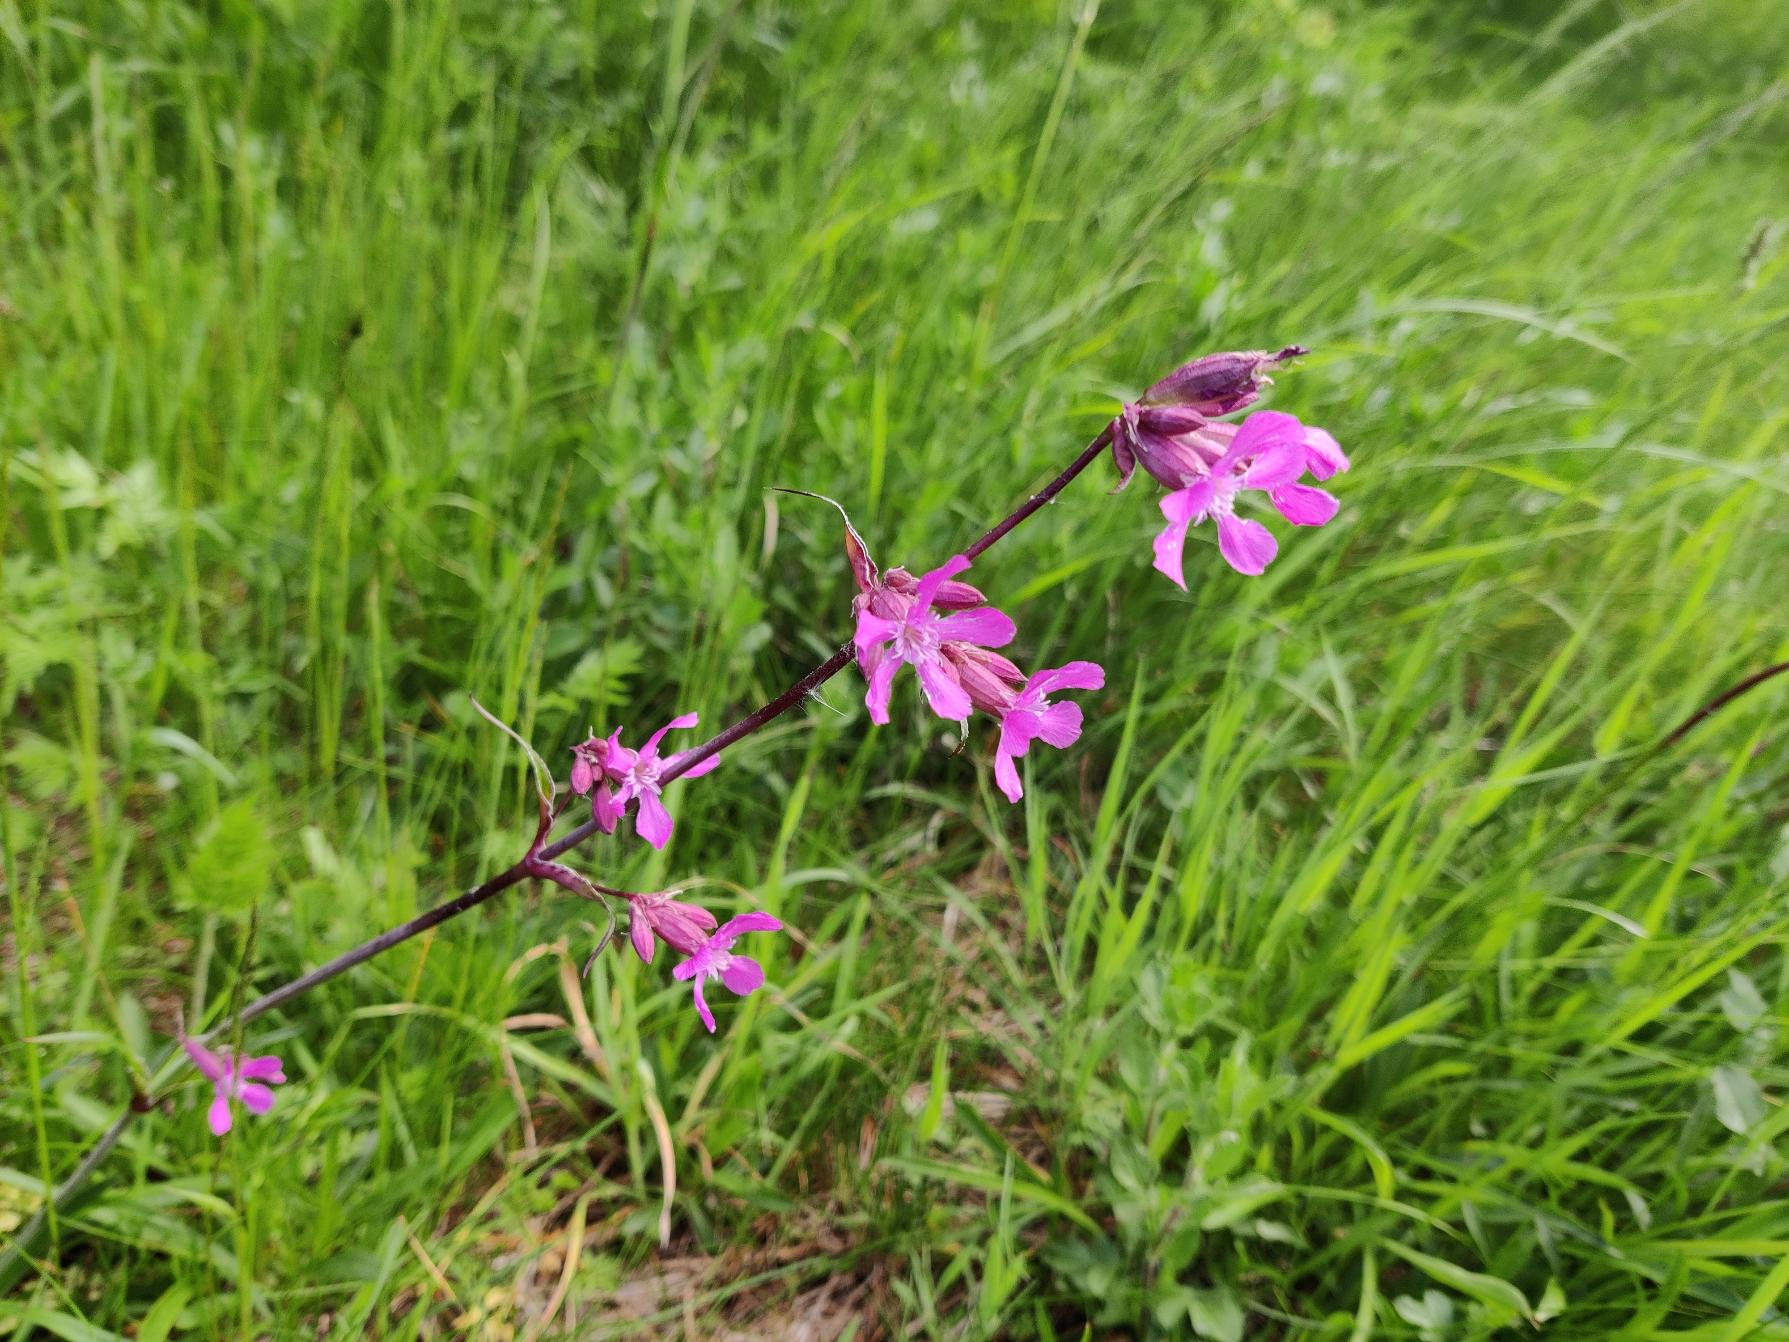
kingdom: Plantae
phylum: Tracheophyta
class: Magnoliopsida
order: Caryophyllales
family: Caryophyllaceae
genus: Viscaria
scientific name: Viscaria vulgaris
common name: Tjærenellike
